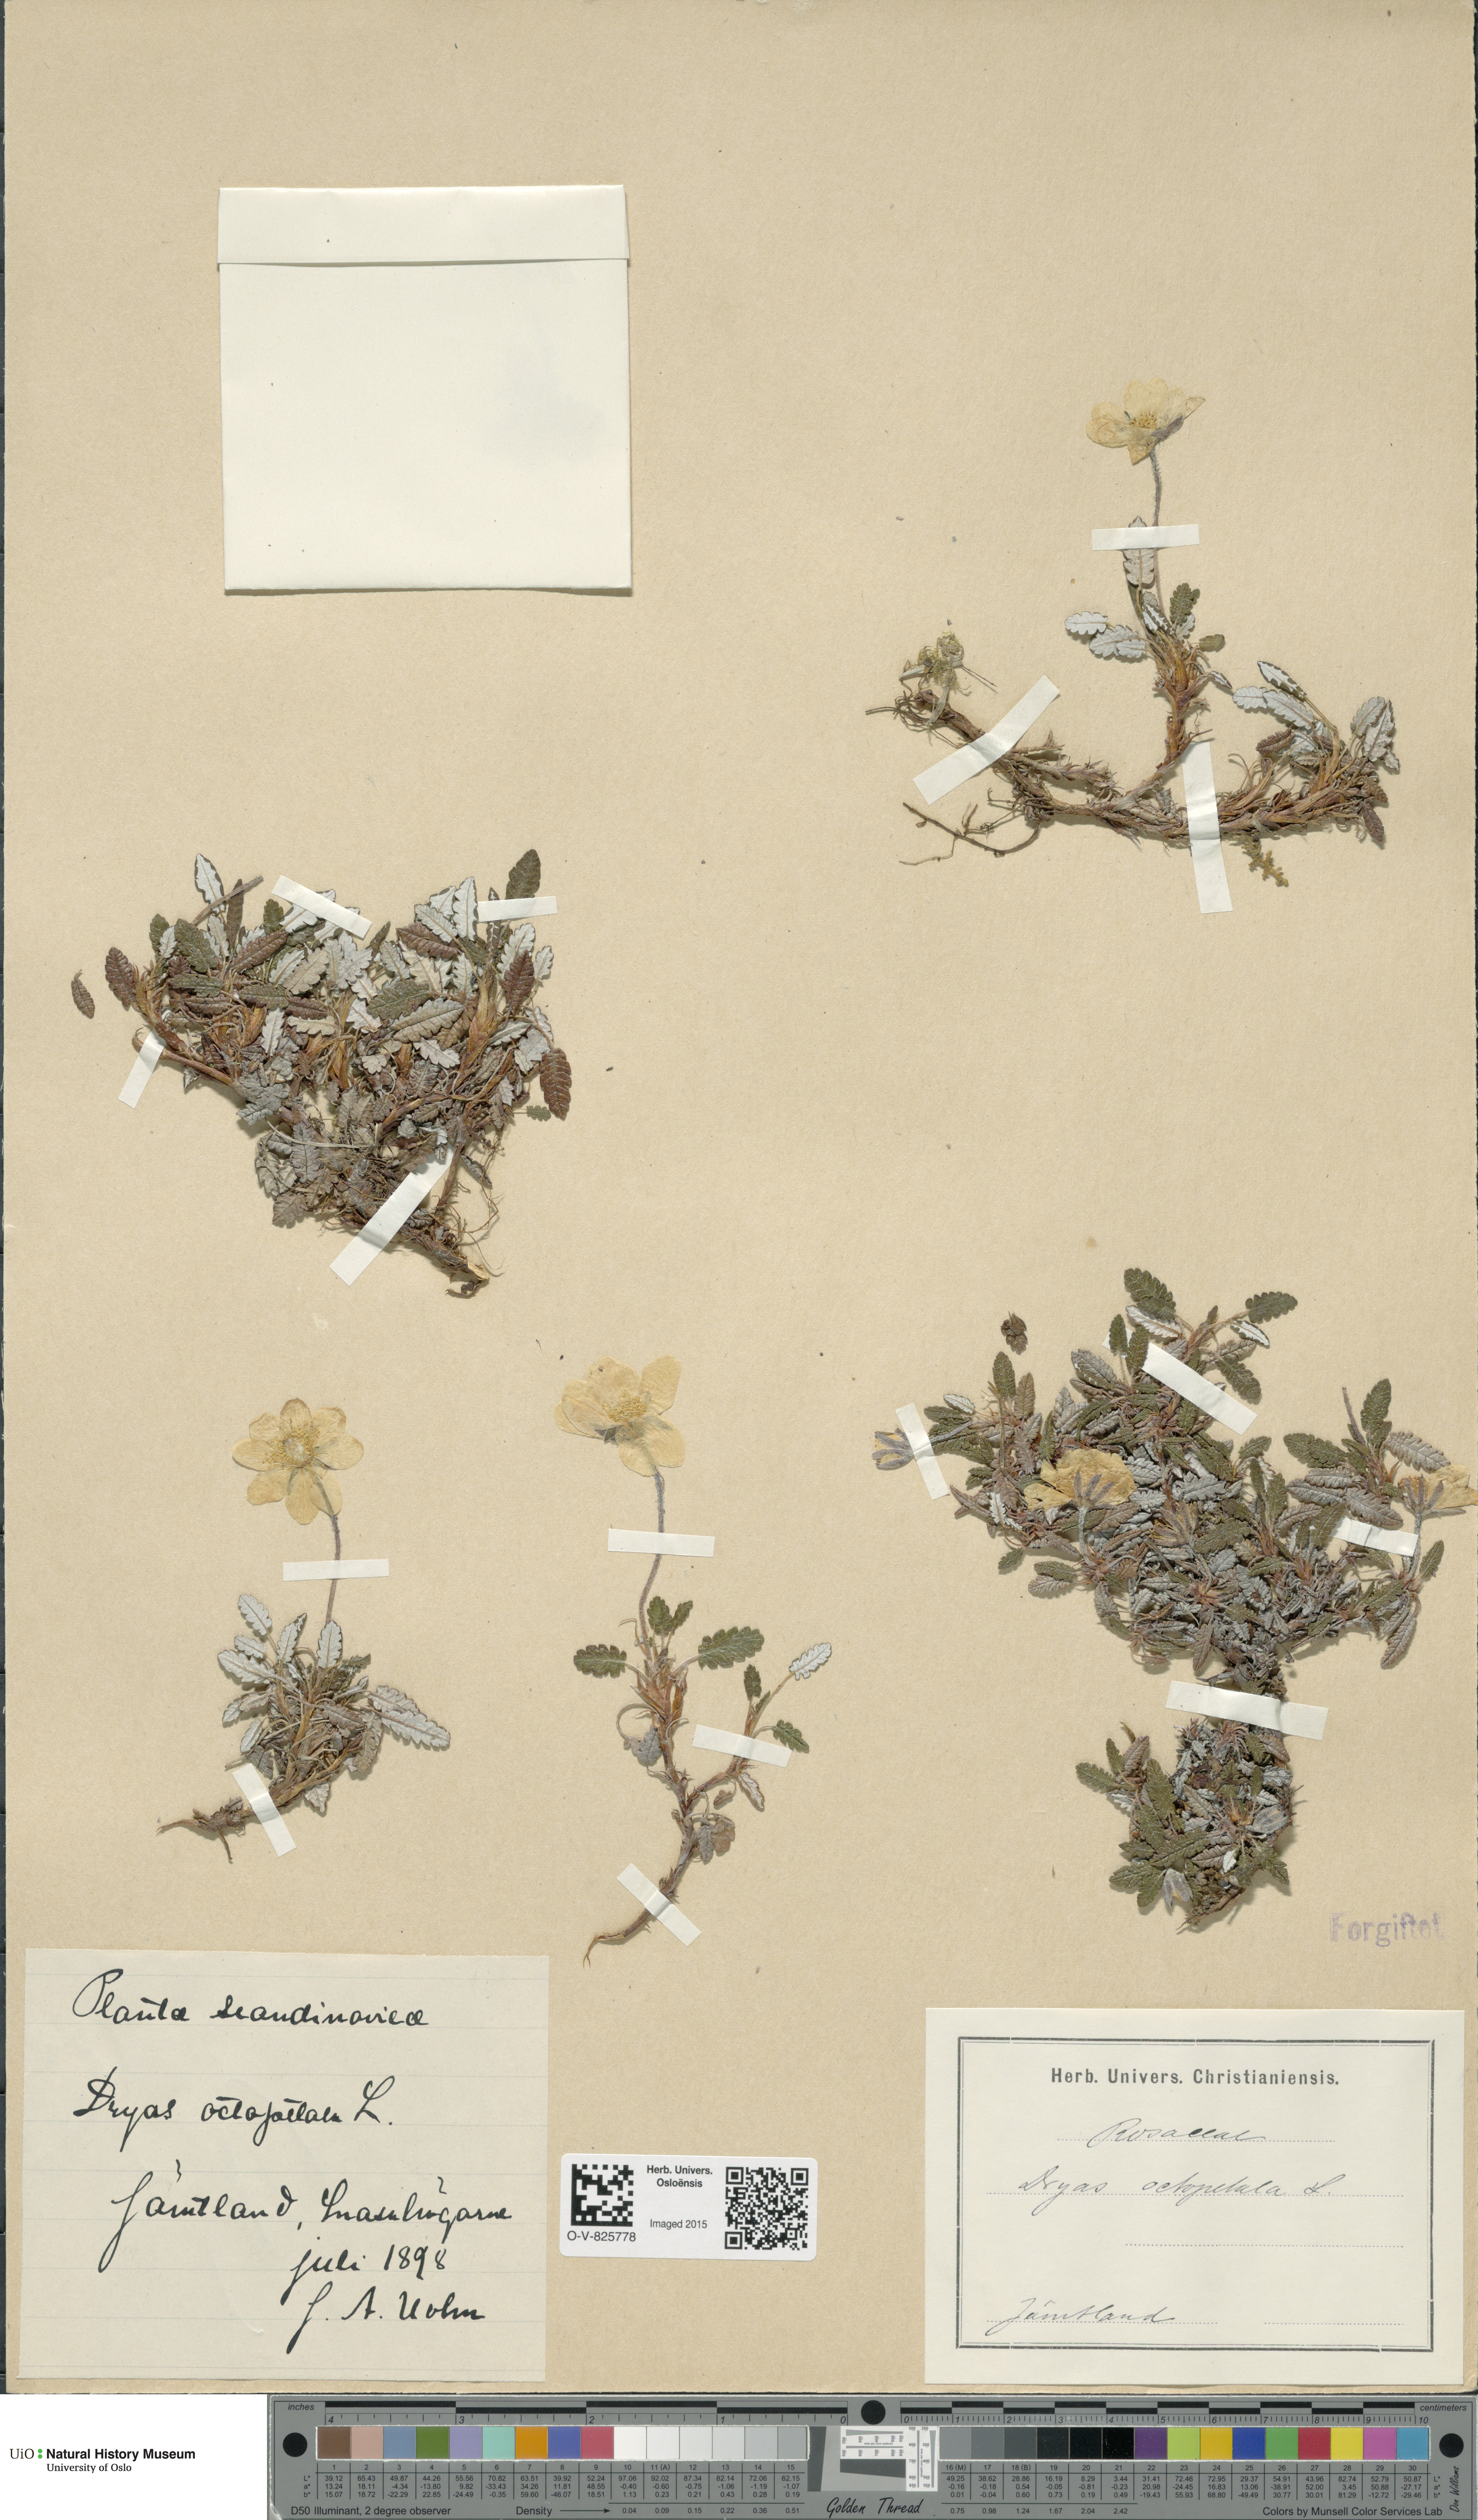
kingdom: Plantae
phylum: Tracheophyta
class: Magnoliopsida
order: Rosales
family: Rosaceae
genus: Dryas
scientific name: Dryas octopetala
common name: Eight-petal mountain-avens
